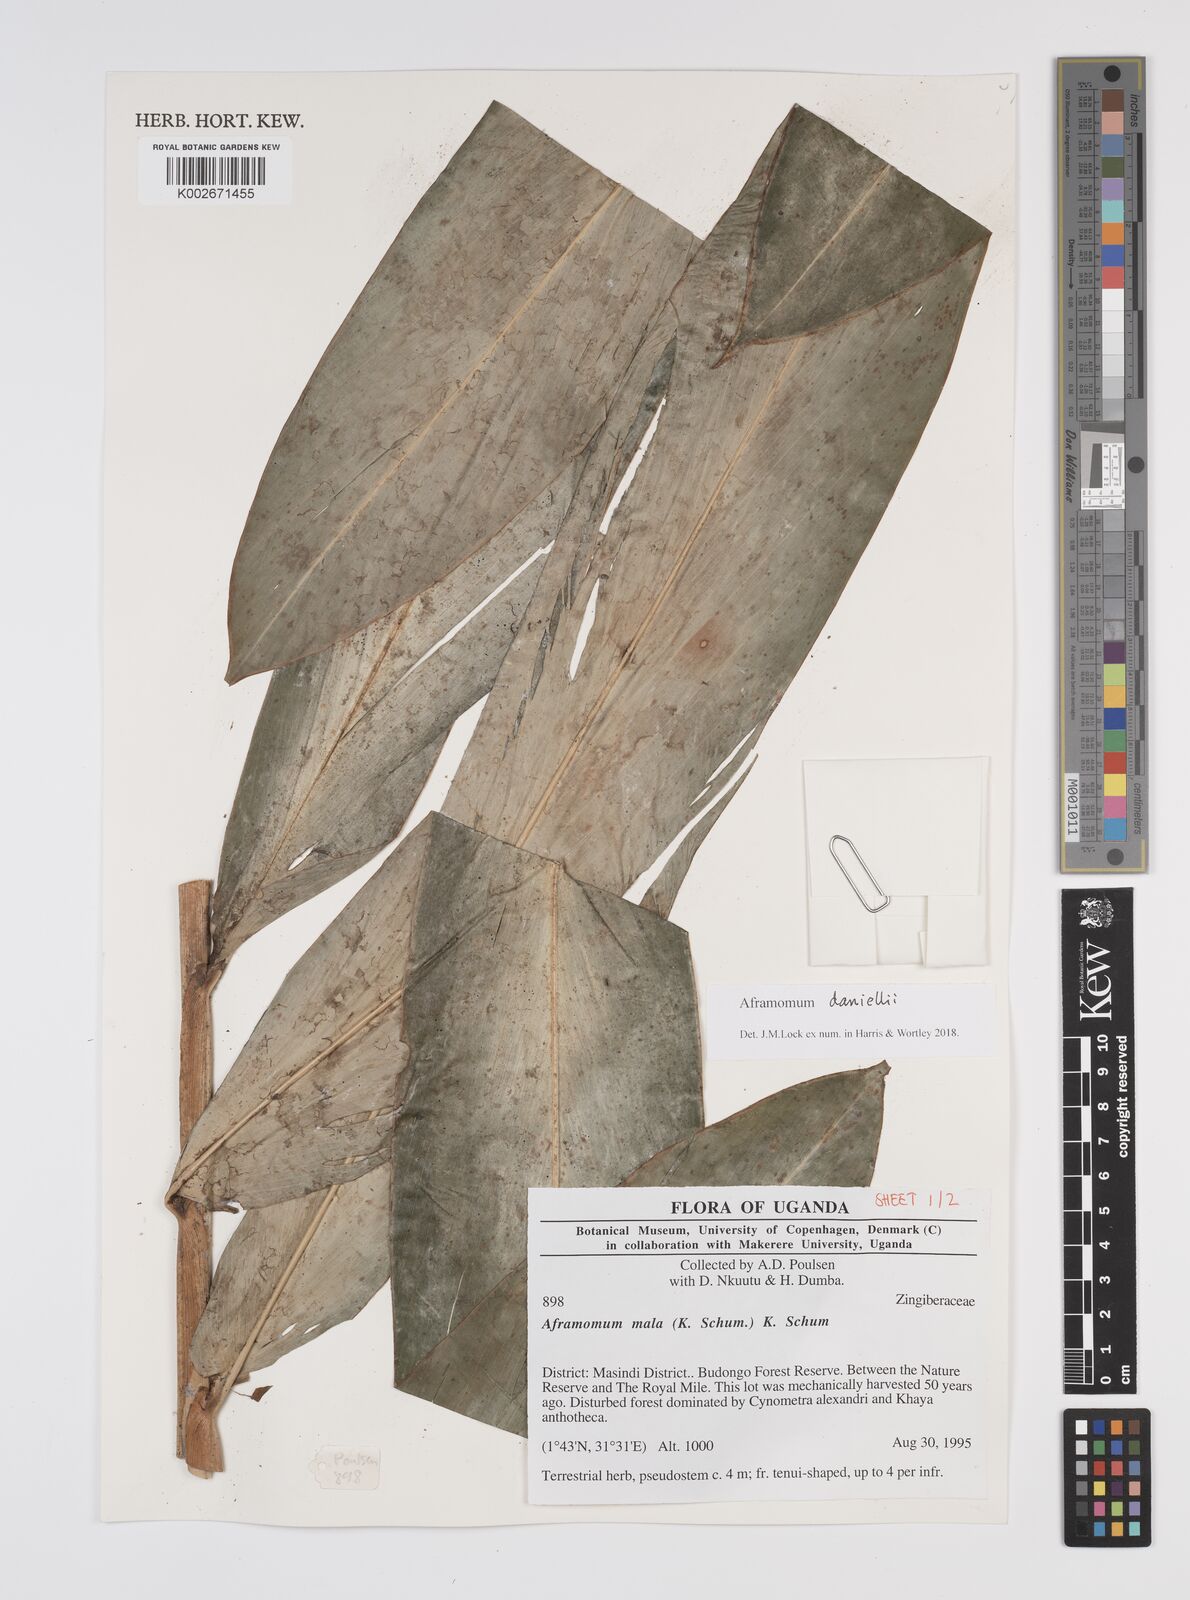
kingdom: Plantae
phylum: Tracheophyta
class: Liliopsida
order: Zingiberales
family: Zingiberaceae
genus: Aframomum
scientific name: Aframomum daniellii
